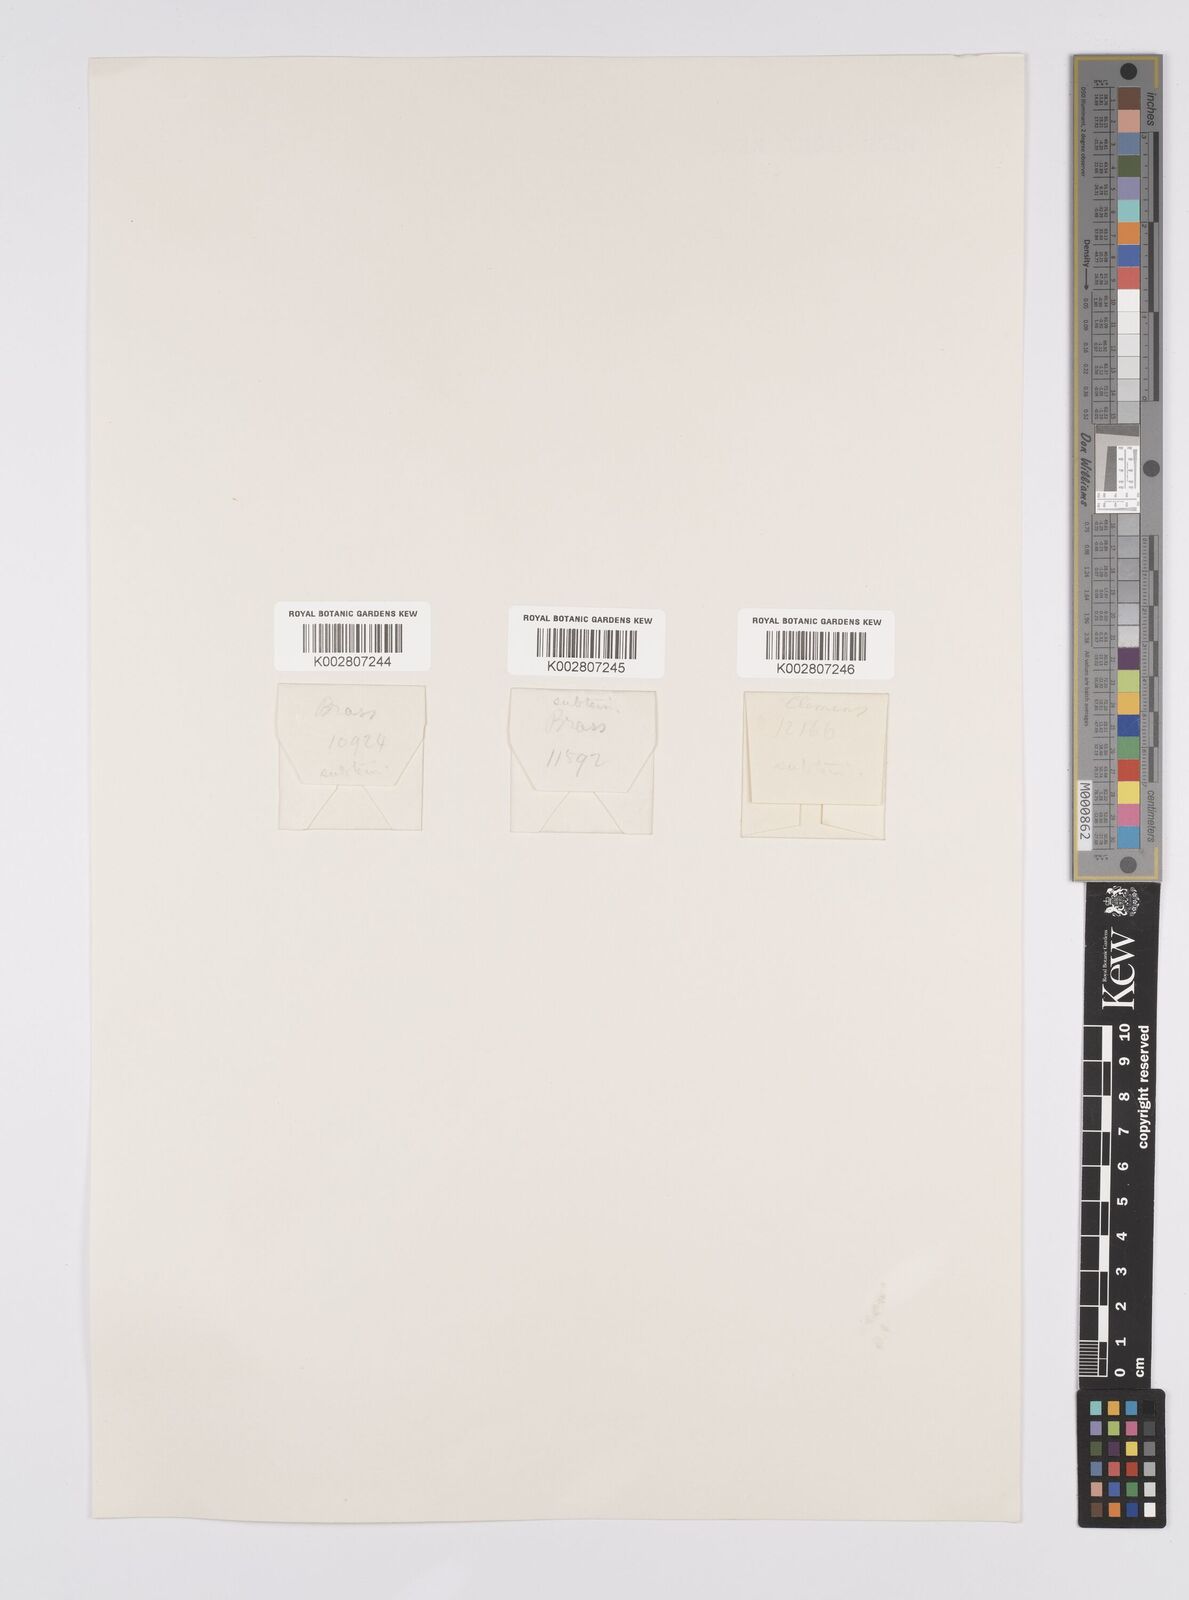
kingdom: Plantae
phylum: Tracheophyta
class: Liliopsida
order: Poales
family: Cyperaceae
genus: Carex
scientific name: Carex brunnea
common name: Greater brown sedge
